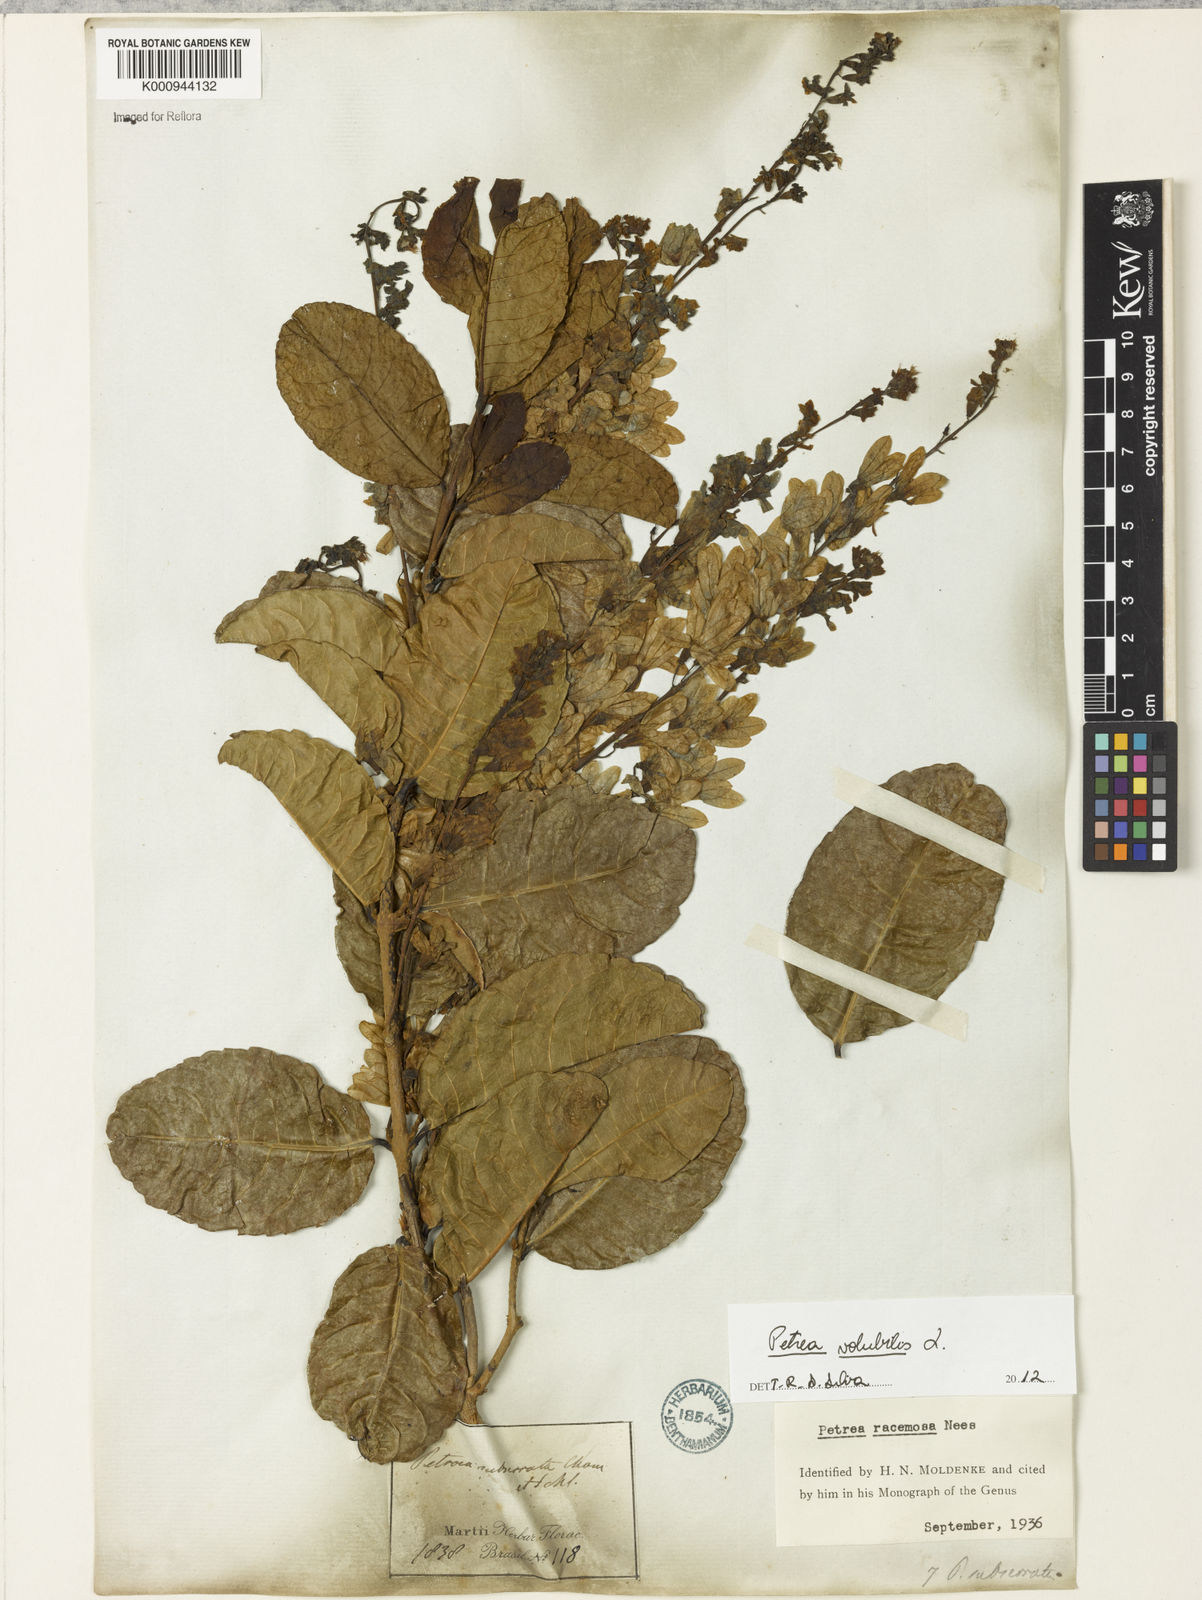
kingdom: Plantae
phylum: Tracheophyta
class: Magnoliopsida
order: Lamiales
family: Verbenaceae
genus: Petrea
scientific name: Petrea volubilis
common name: Queen's-wreath
